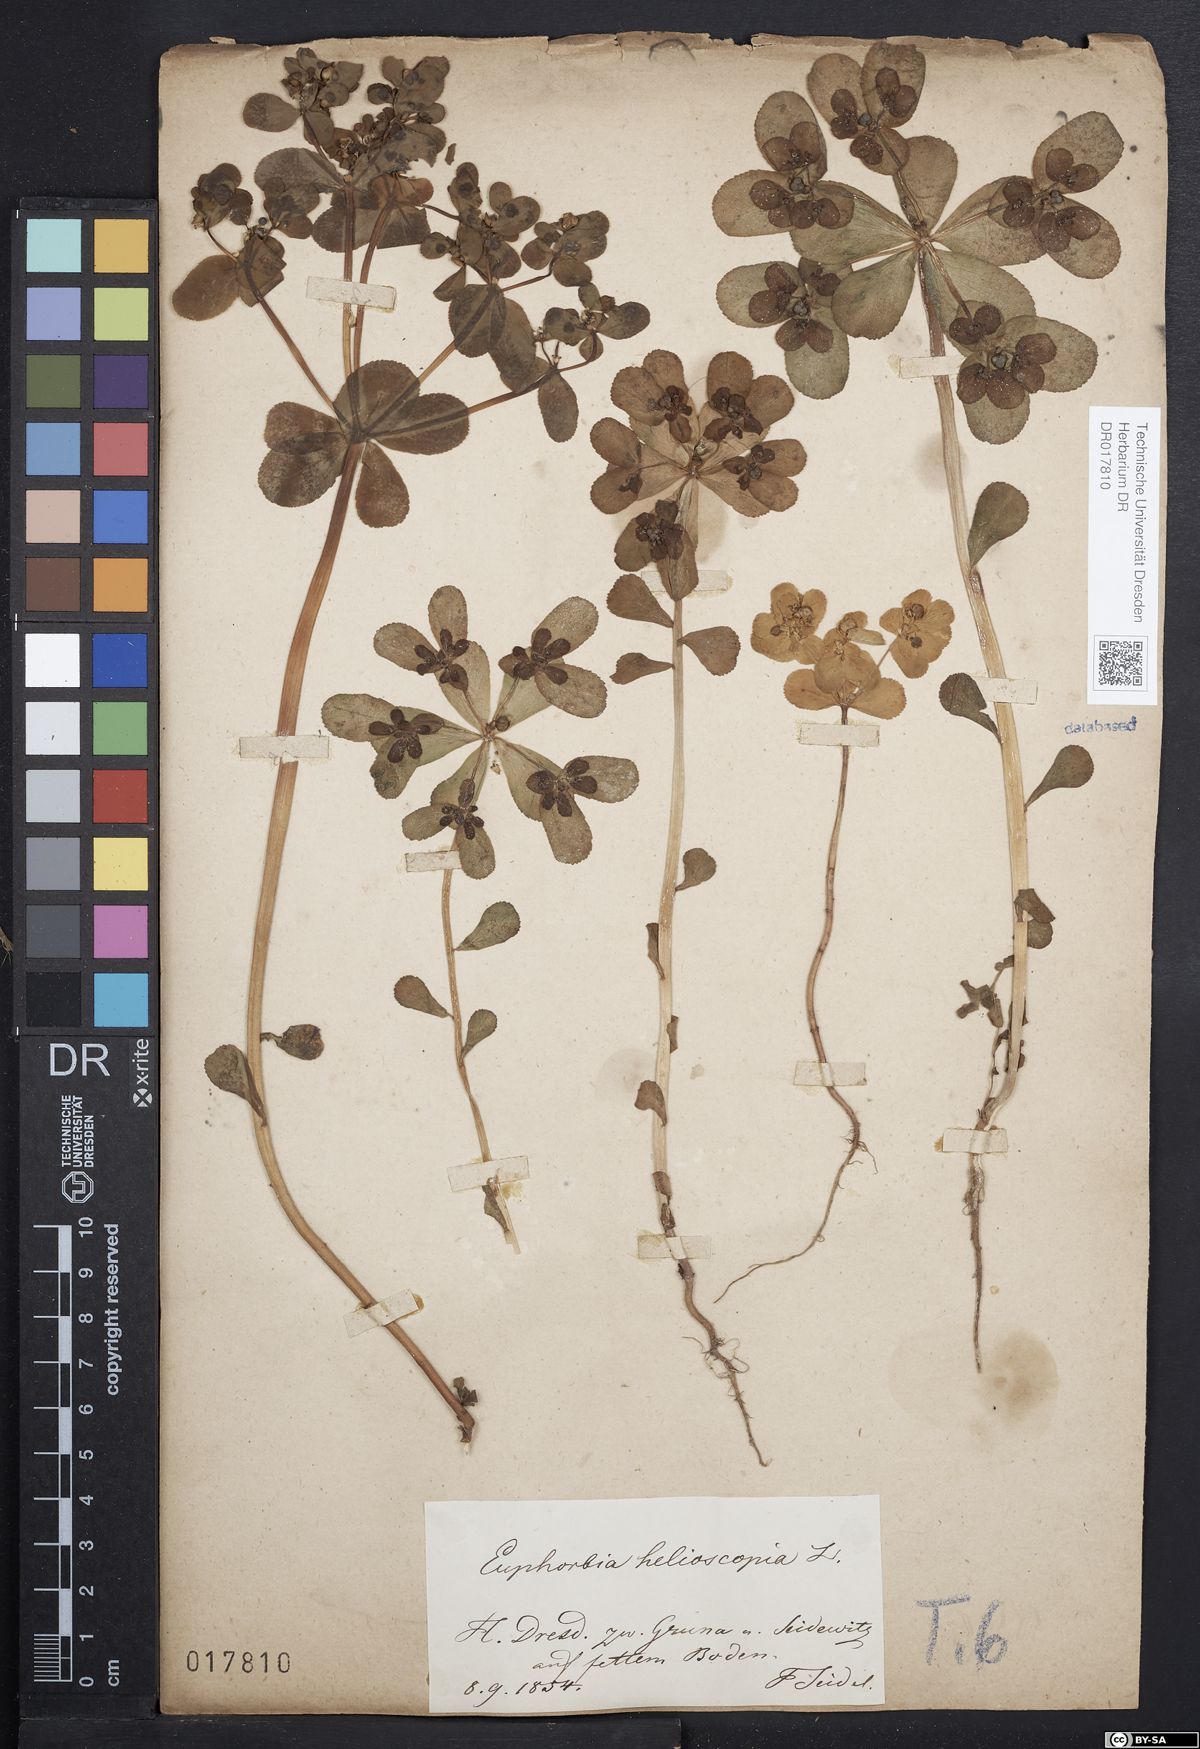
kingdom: Plantae
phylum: Tracheophyta
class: Magnoliopsida
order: Malpighiales
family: Euphorbiaceae
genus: Euphorbia
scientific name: Euphorbia helioscopia
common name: Sun spurge
